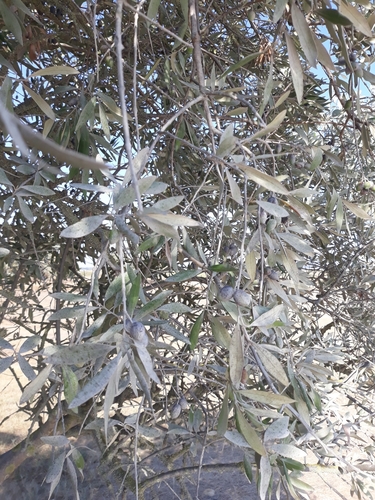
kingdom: Plantae
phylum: Tracheophyta
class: Magnoliopsida
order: Lamiales
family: Oleaceae
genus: Olea
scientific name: Olea europaea
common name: Olive
